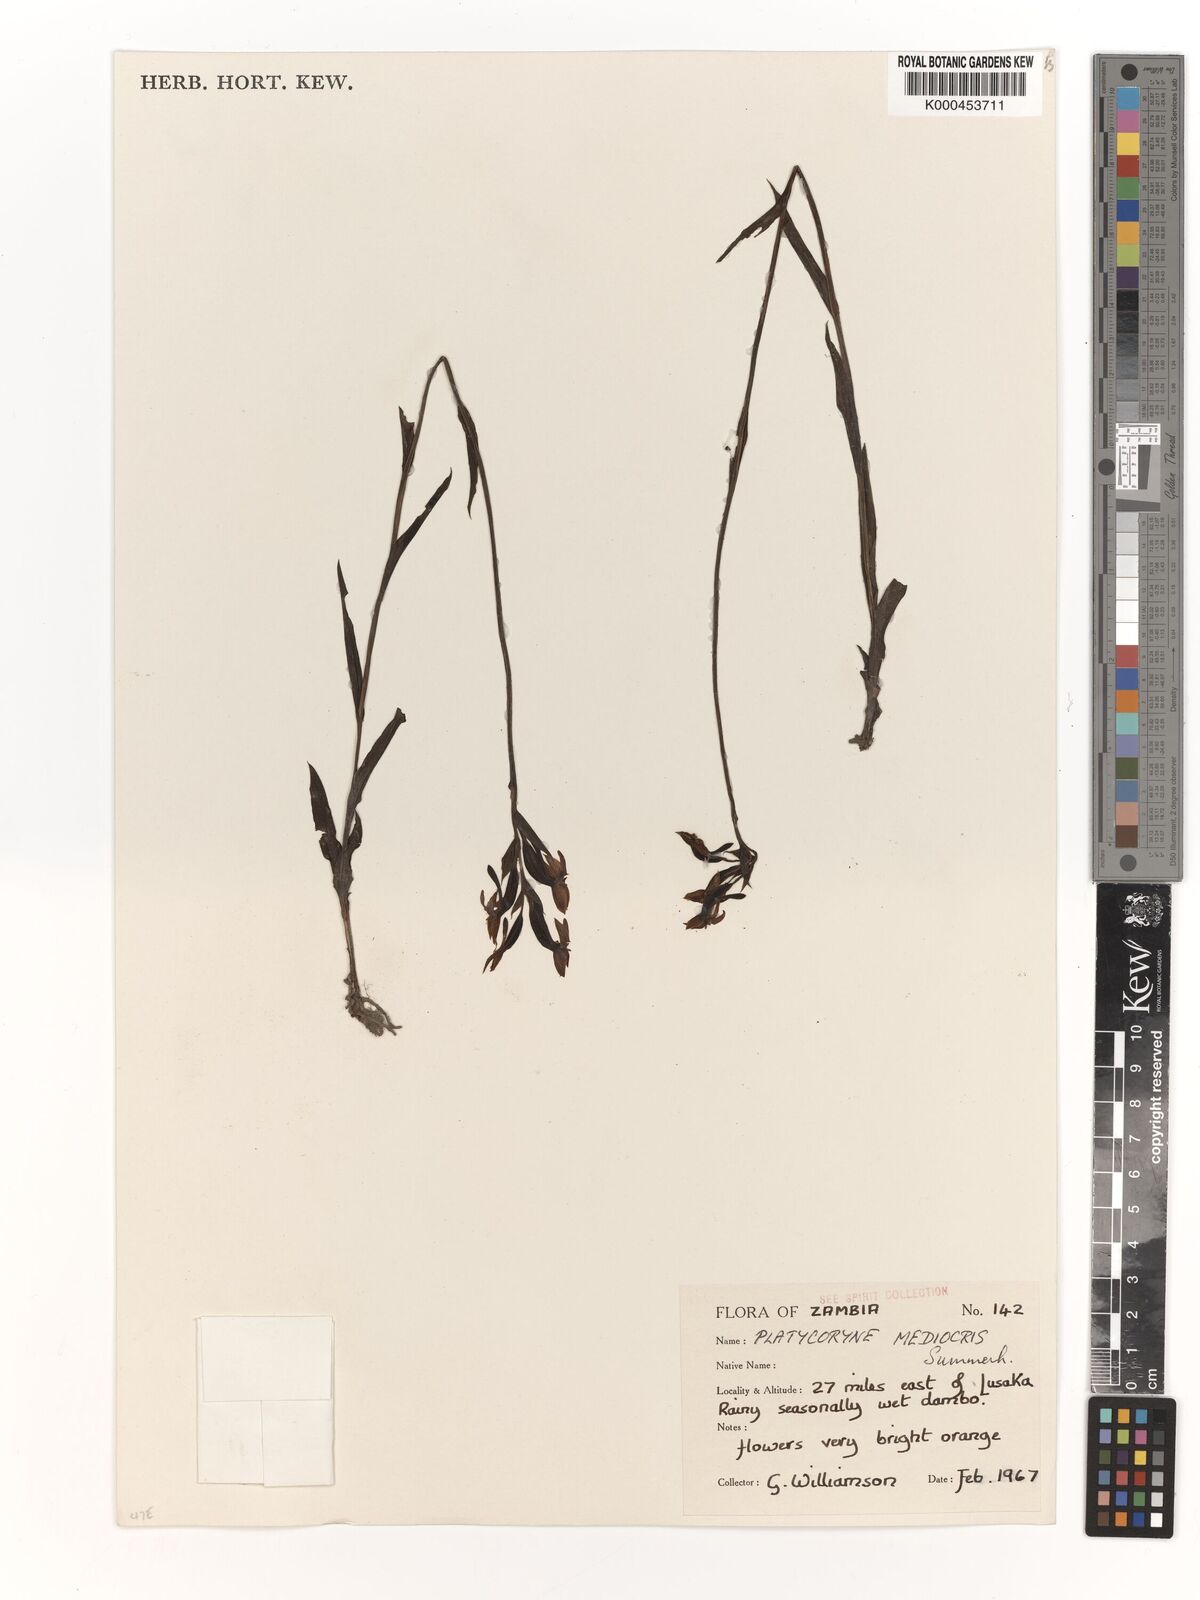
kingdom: Plantae
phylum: Tracheophyta
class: Liliopsida
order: Asparagales
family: Orchidaceae
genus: Platycoryne
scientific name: Platycoryne mediocris
